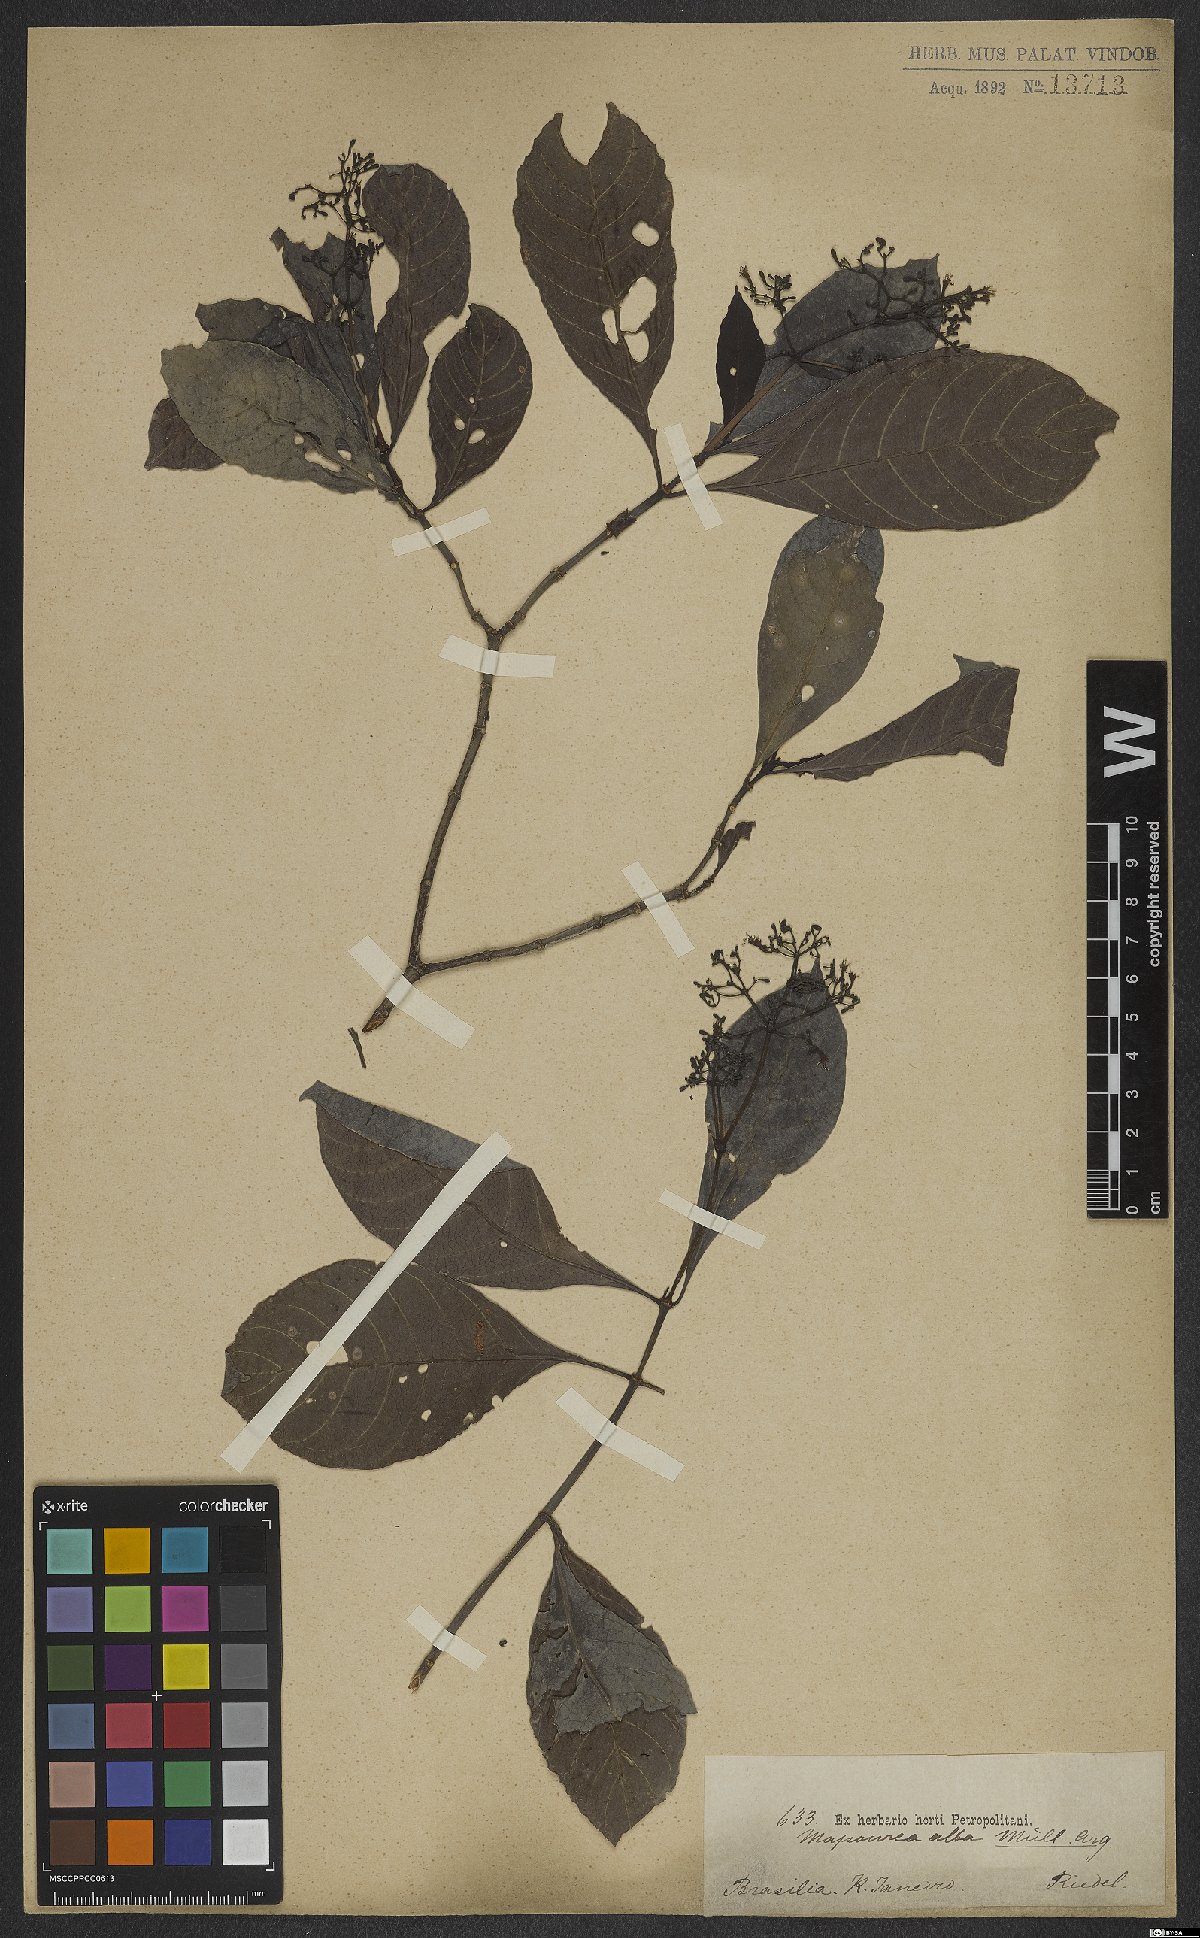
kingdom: Plantae
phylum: Tracheophyta
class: Magnoliopsida
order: Gentianales
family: Rubiaceae
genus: Psychotria
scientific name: Psychotria alba
